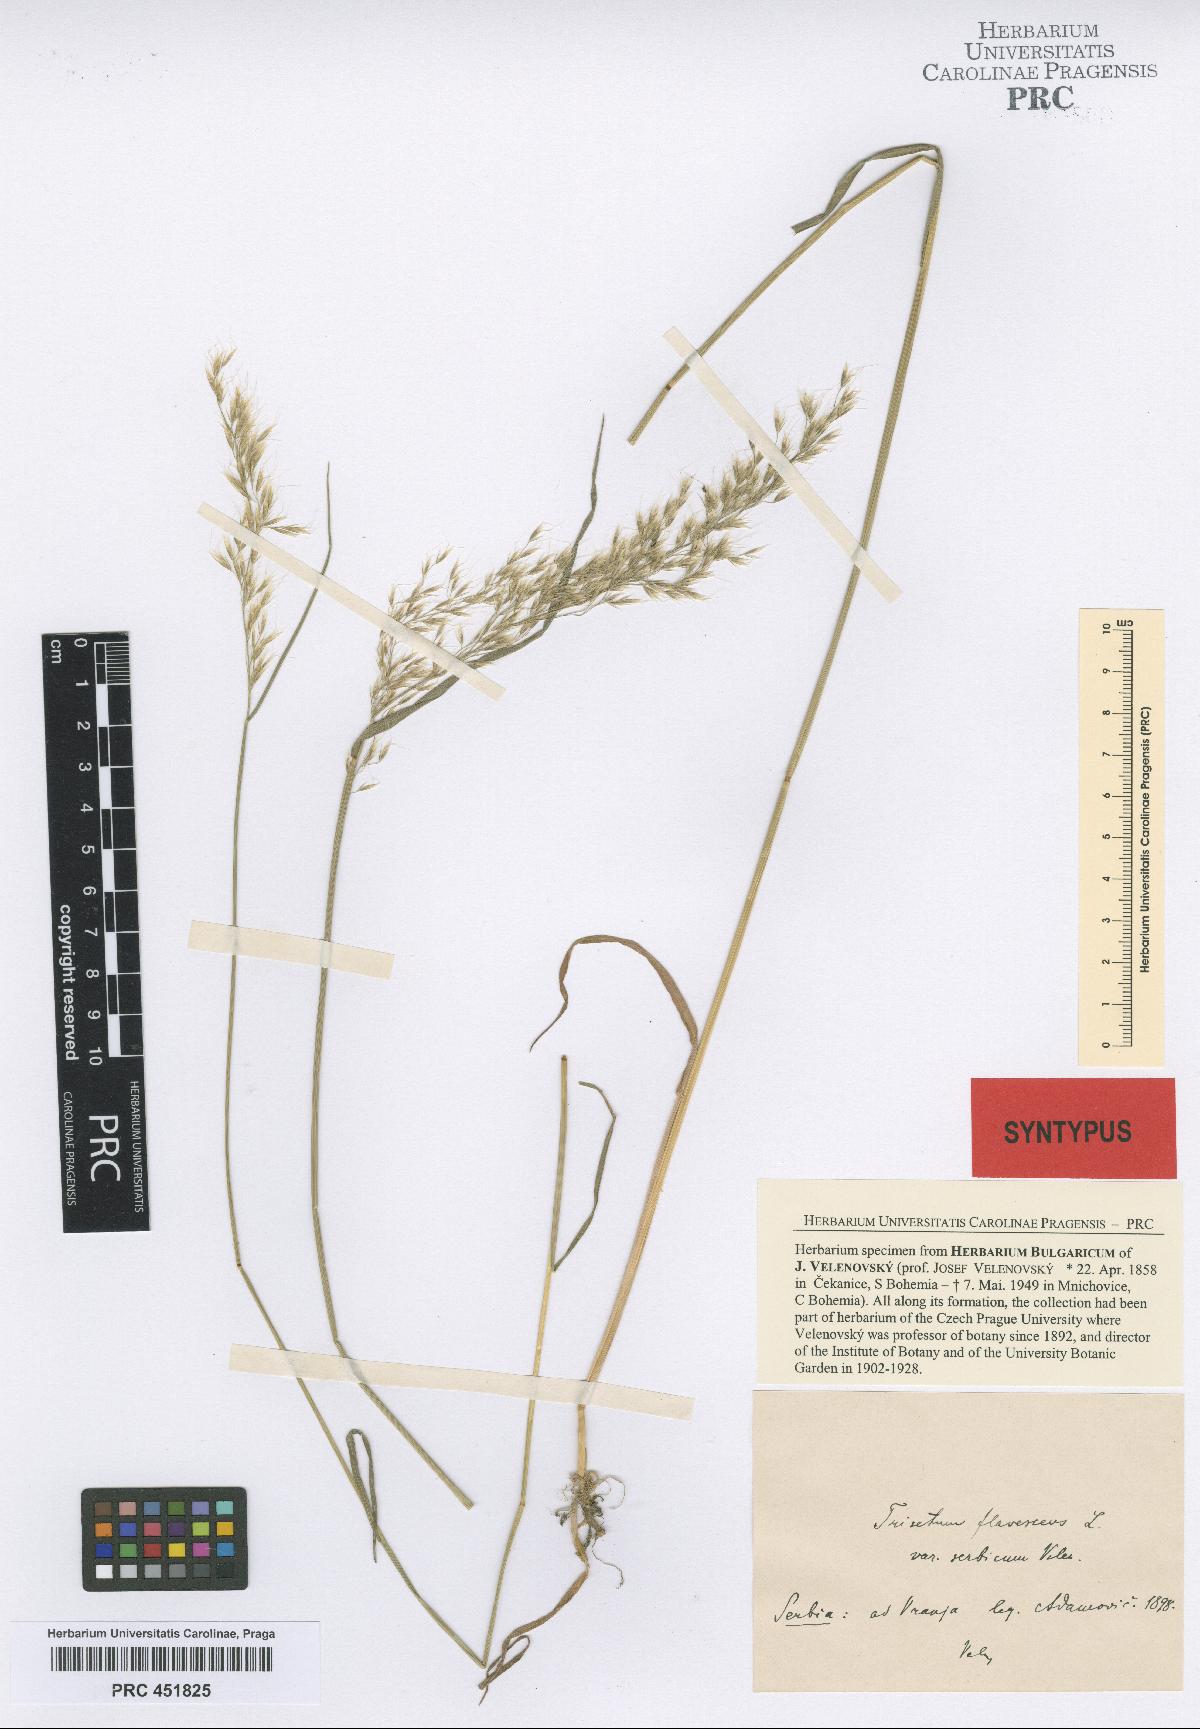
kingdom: Plantae
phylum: Tracheophyta
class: Liliopsida
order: Poales
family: Poaceae
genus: Trisetum
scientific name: Trisetum flavescens
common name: Yellow oat-grass
